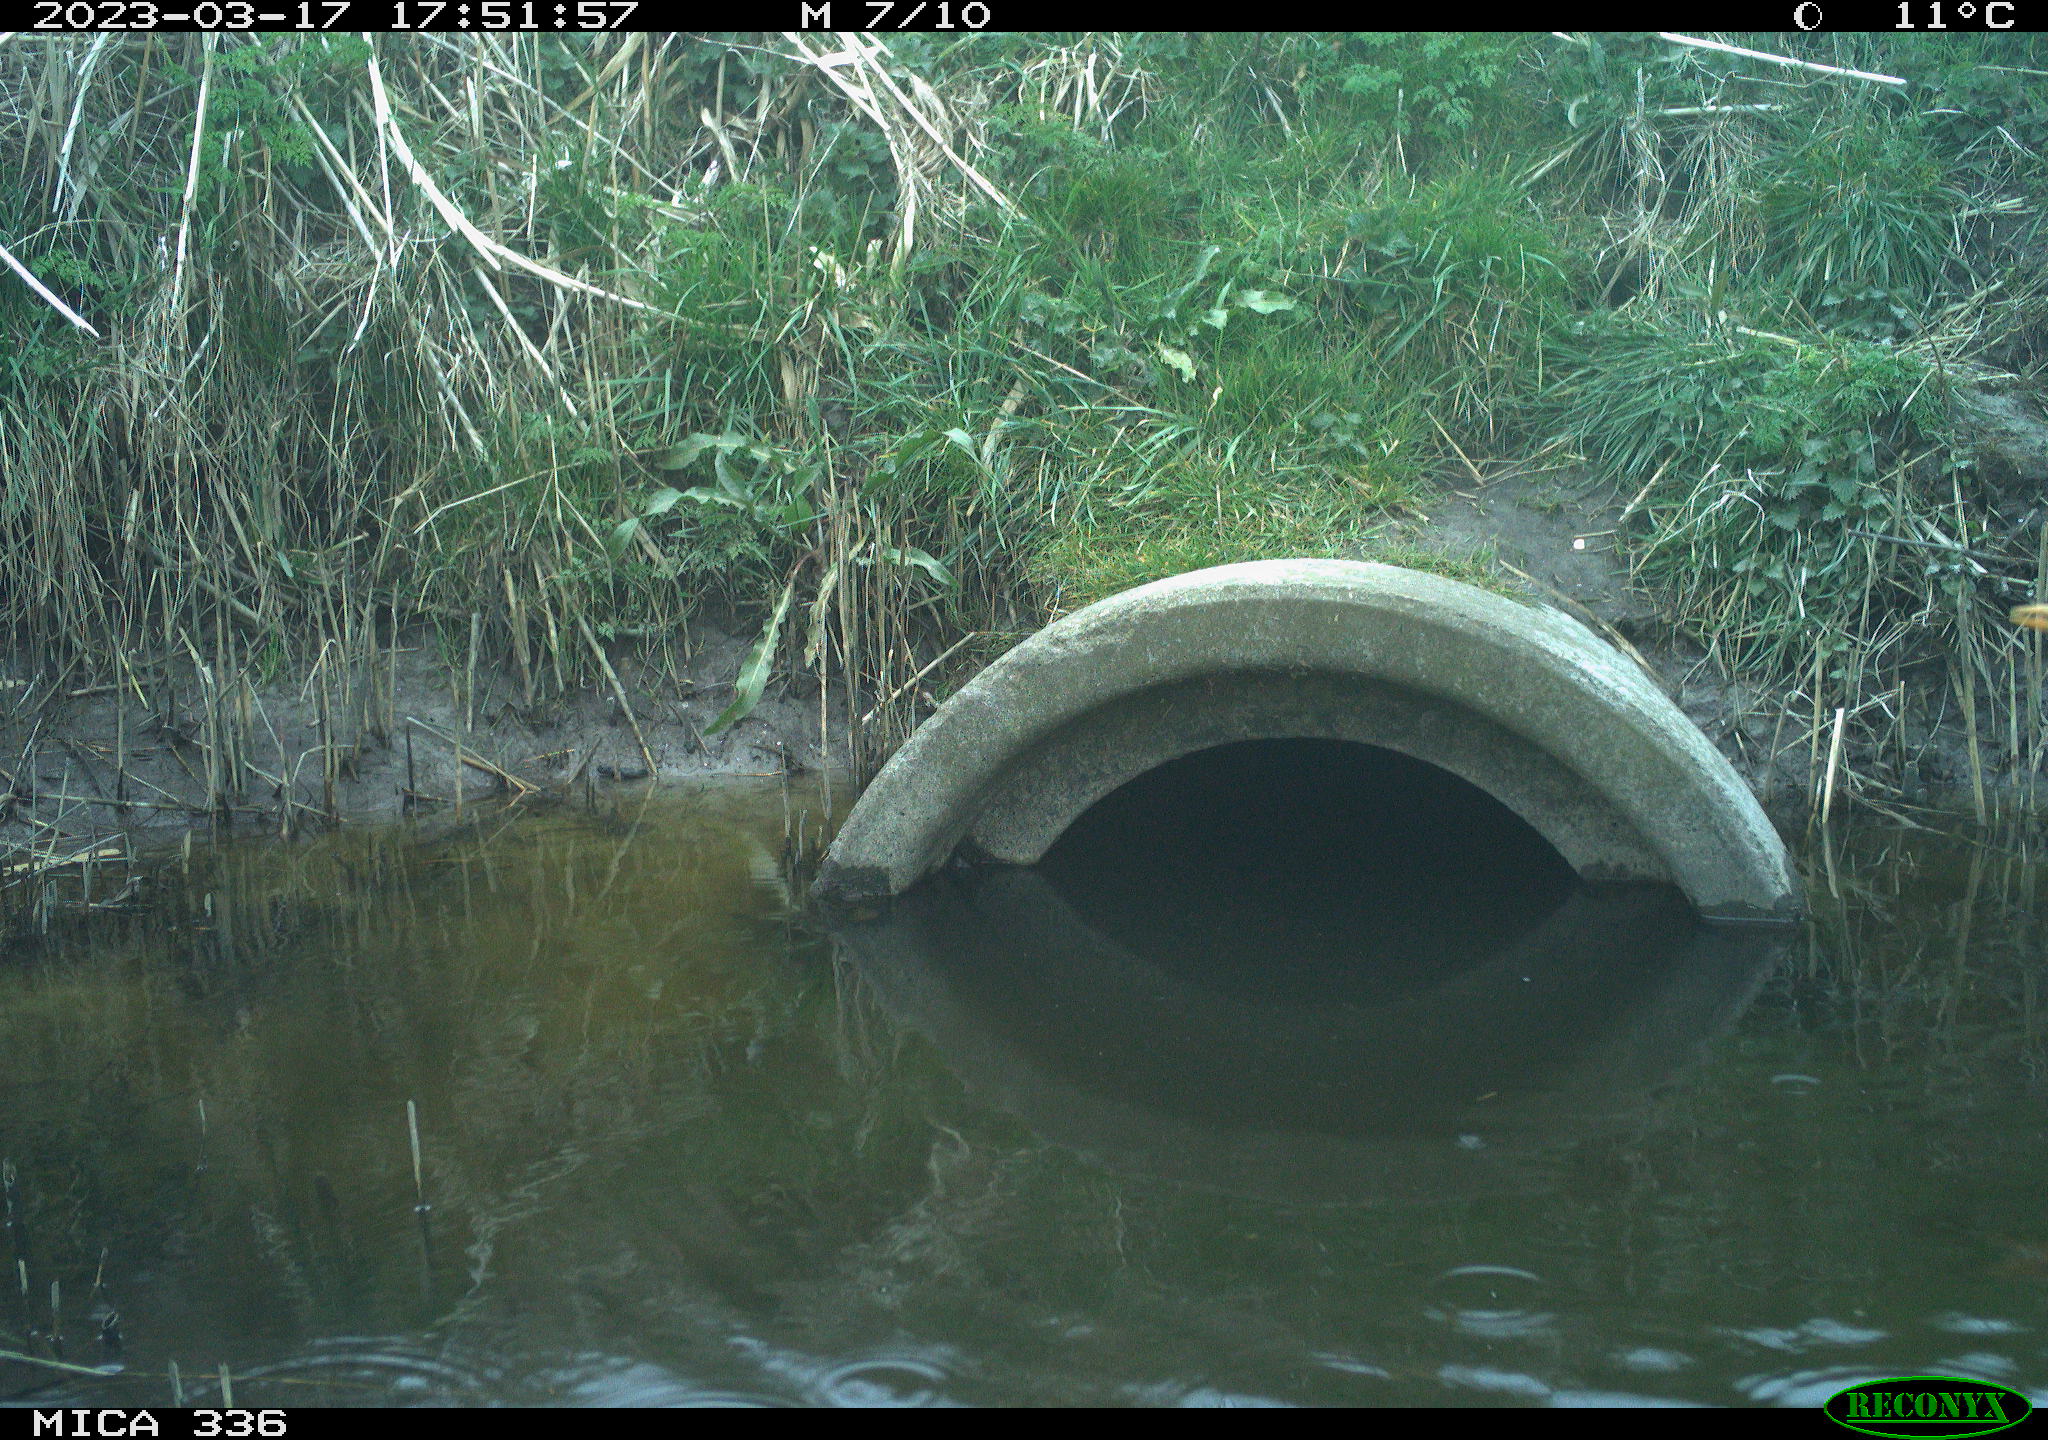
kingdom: Animalia
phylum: Chordata
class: Aves
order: Pelecaniformes
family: Ardeidae
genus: Ardea
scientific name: Ardea cinerea
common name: Grey heron
